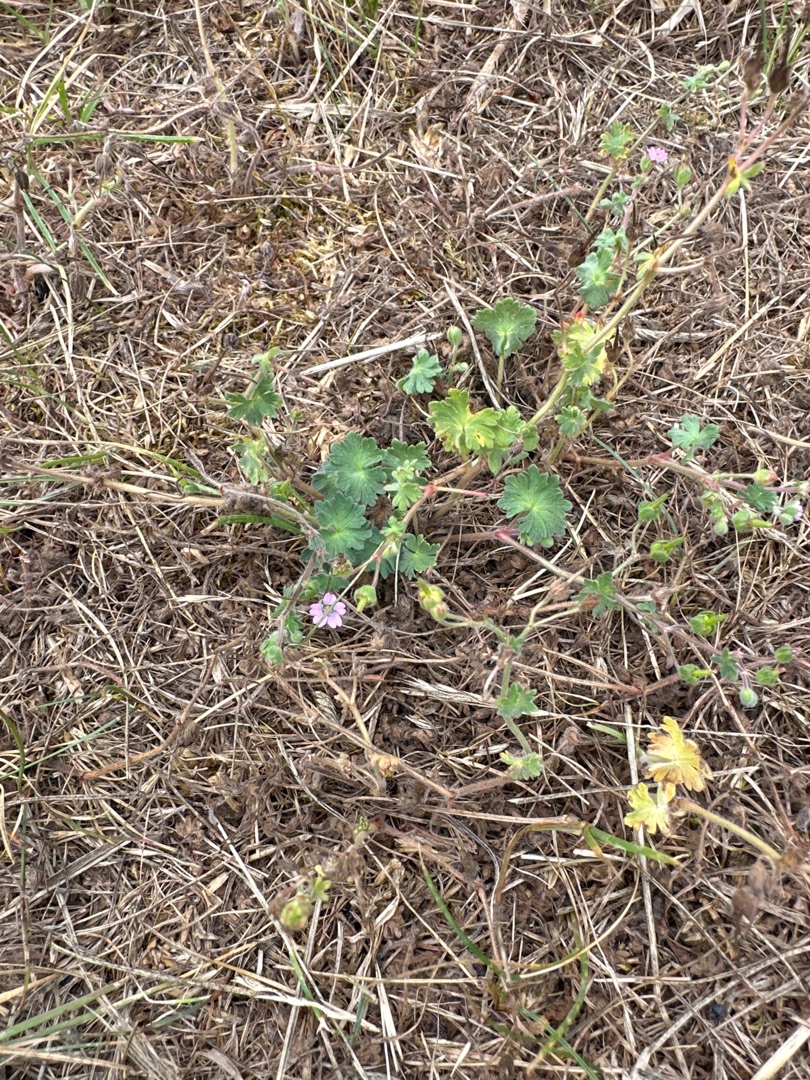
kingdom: Plantae
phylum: Tracheophyta
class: Magnoliopsida
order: Geraniales
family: Geraniaceae
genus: Geranium
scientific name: Geranium molle
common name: Blød storkenæb
